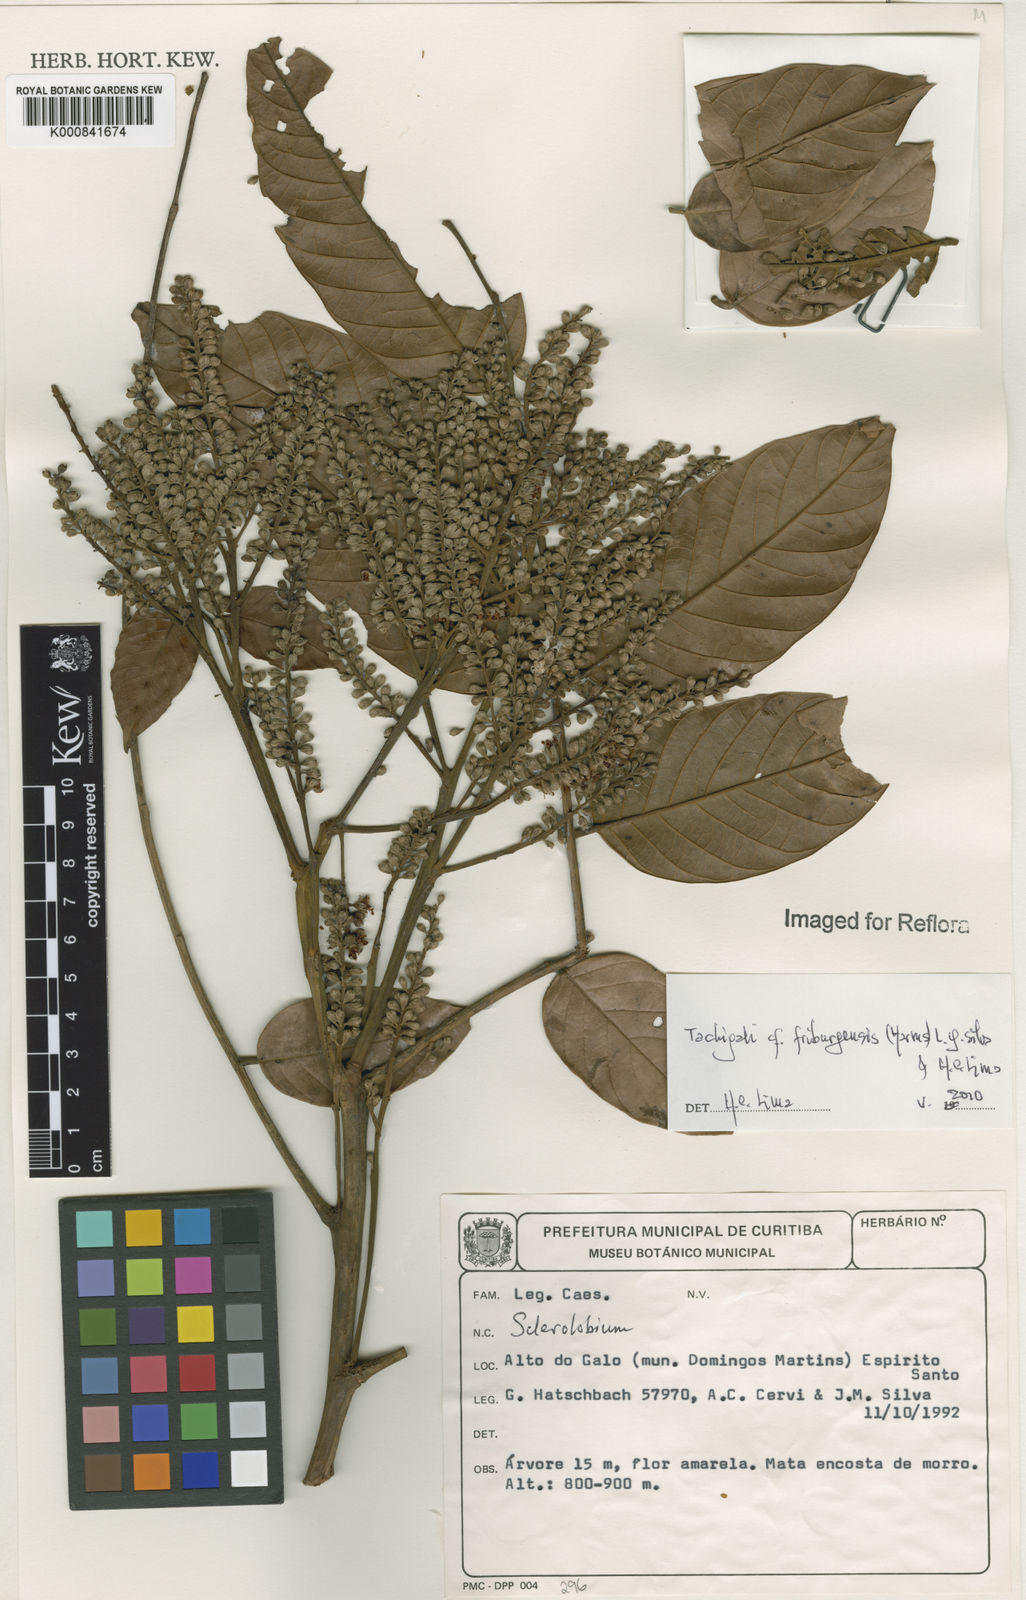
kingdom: Plantae
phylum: Tracheophyta
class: Magnoliopsida
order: Fabales
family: Fabaceae
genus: Tachigali
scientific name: Tachigali friburgensis
